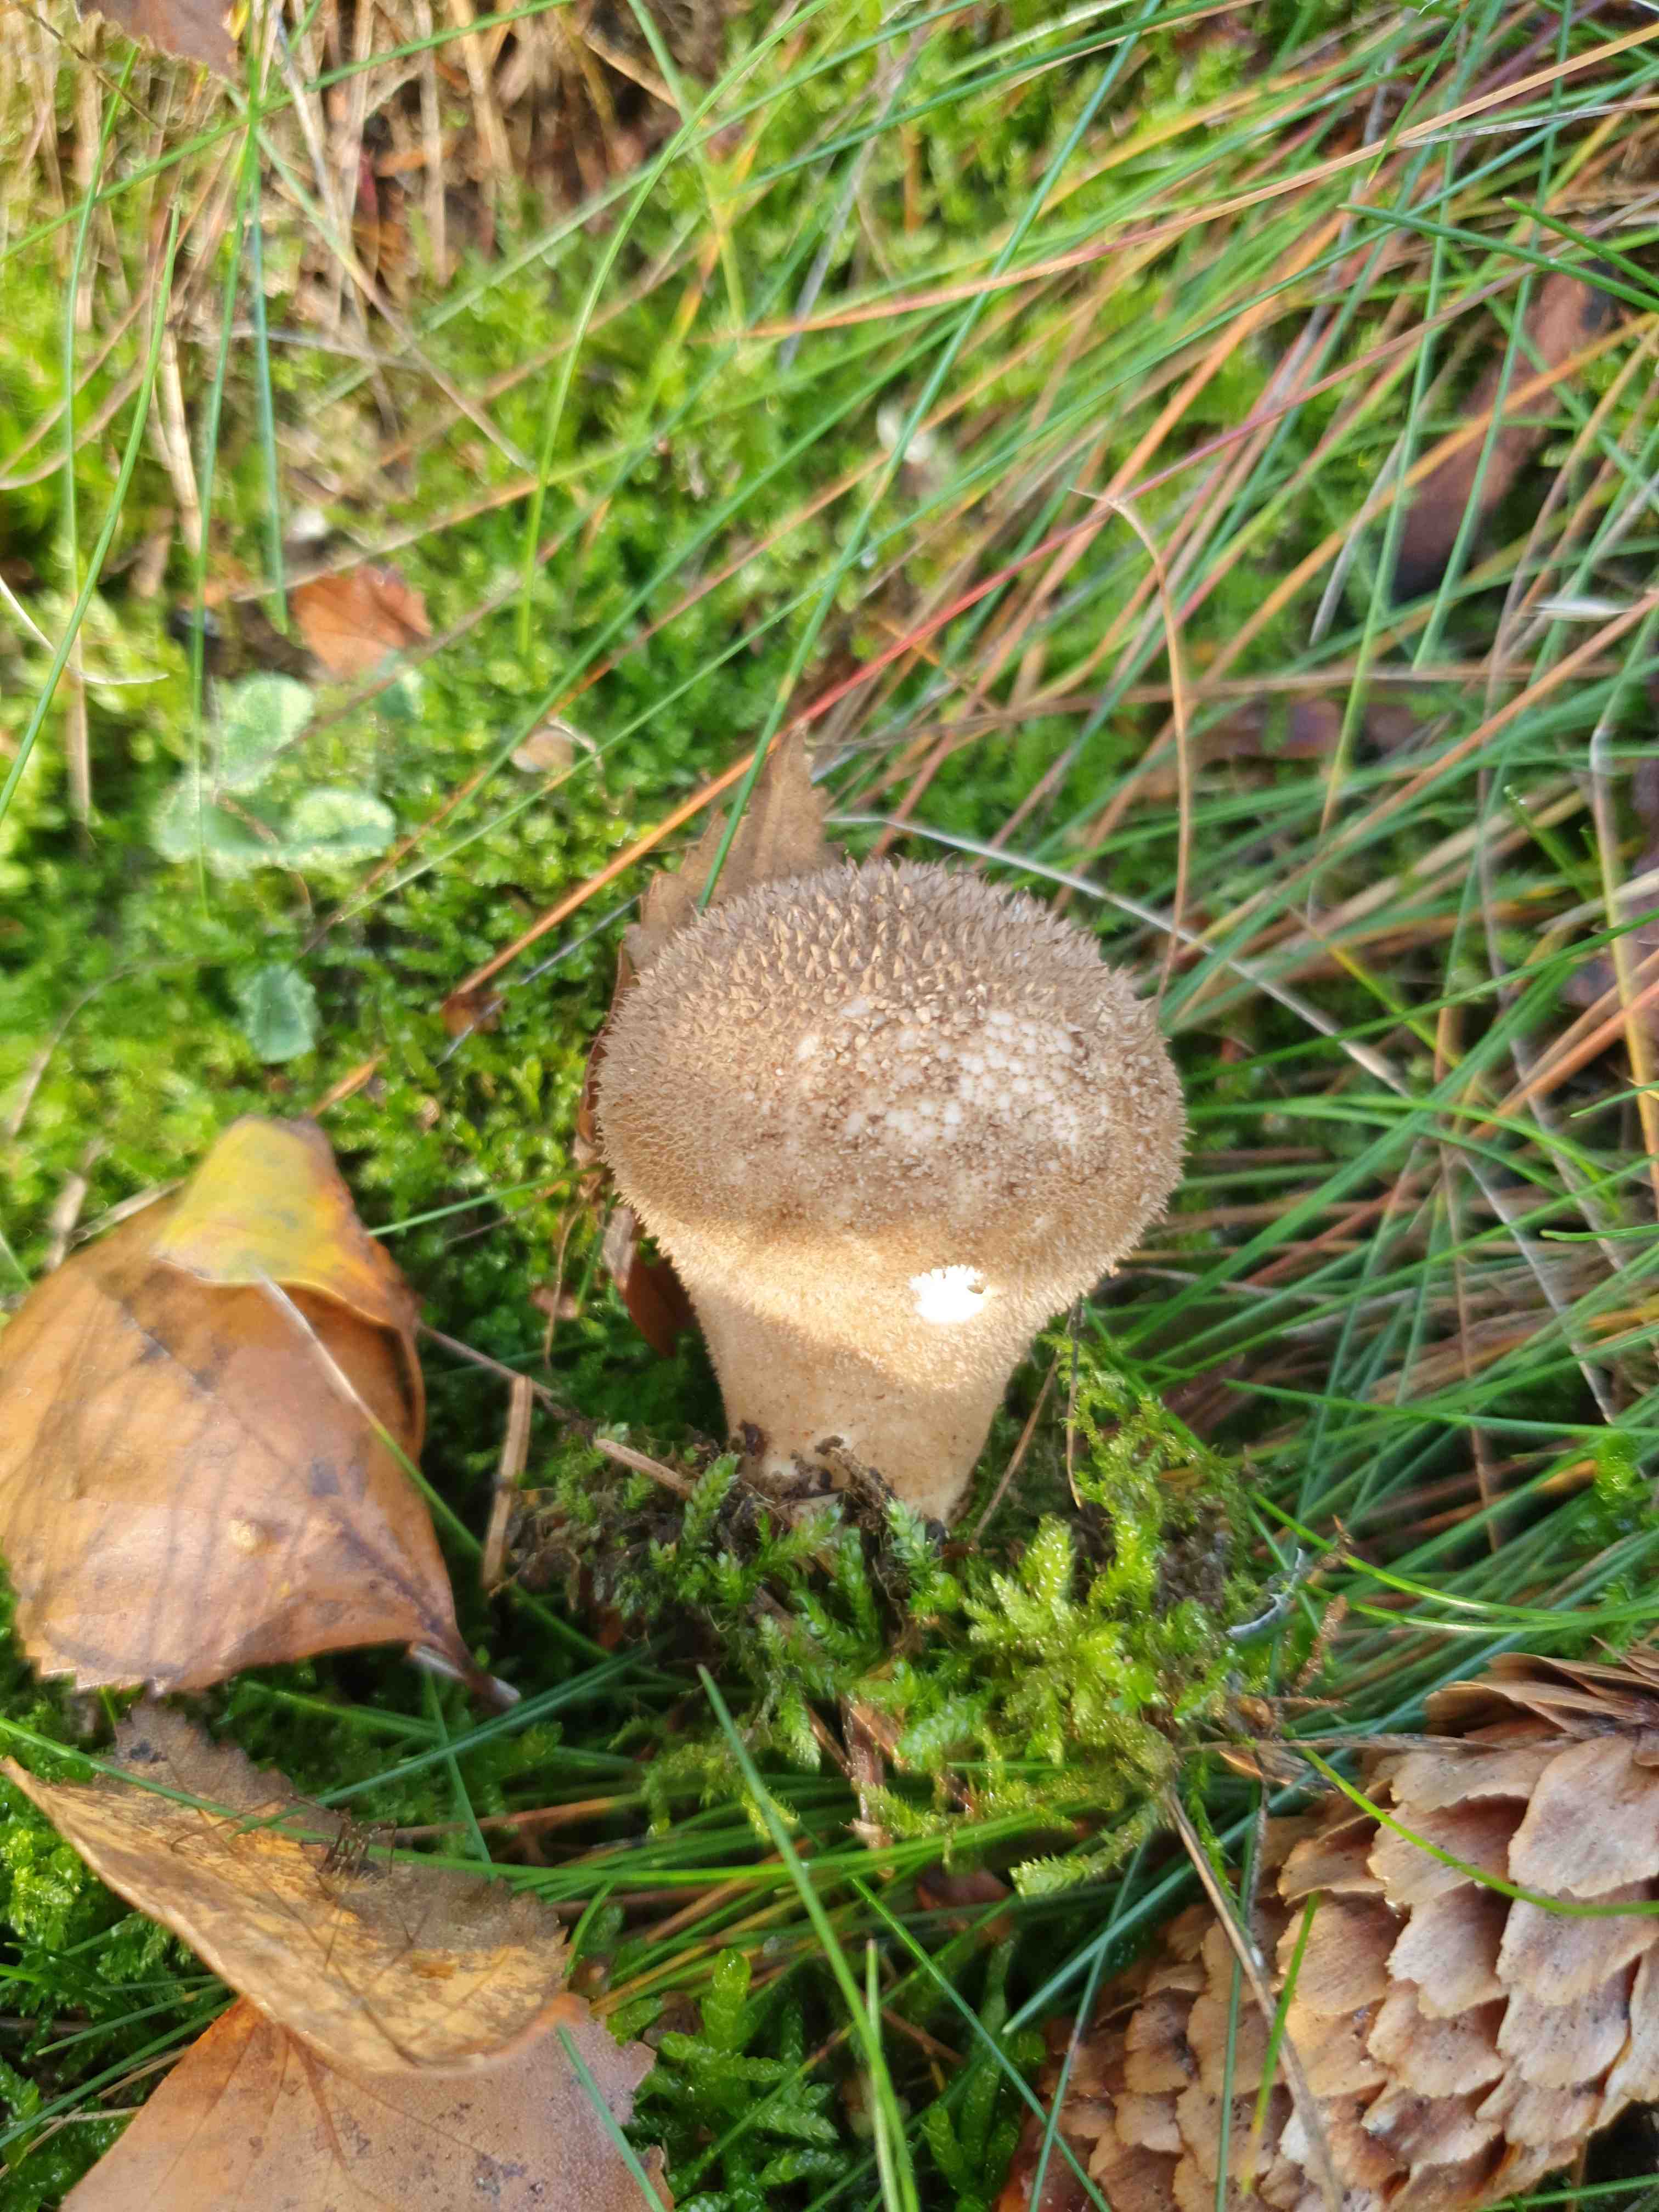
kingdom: Fungi
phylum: Basidiomycota
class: Agaricomycetes
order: Agaricales
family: Lycoperdaceae
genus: Lycoperdon
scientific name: Lycoperdon nigrescens
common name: sortagtig støvbold
